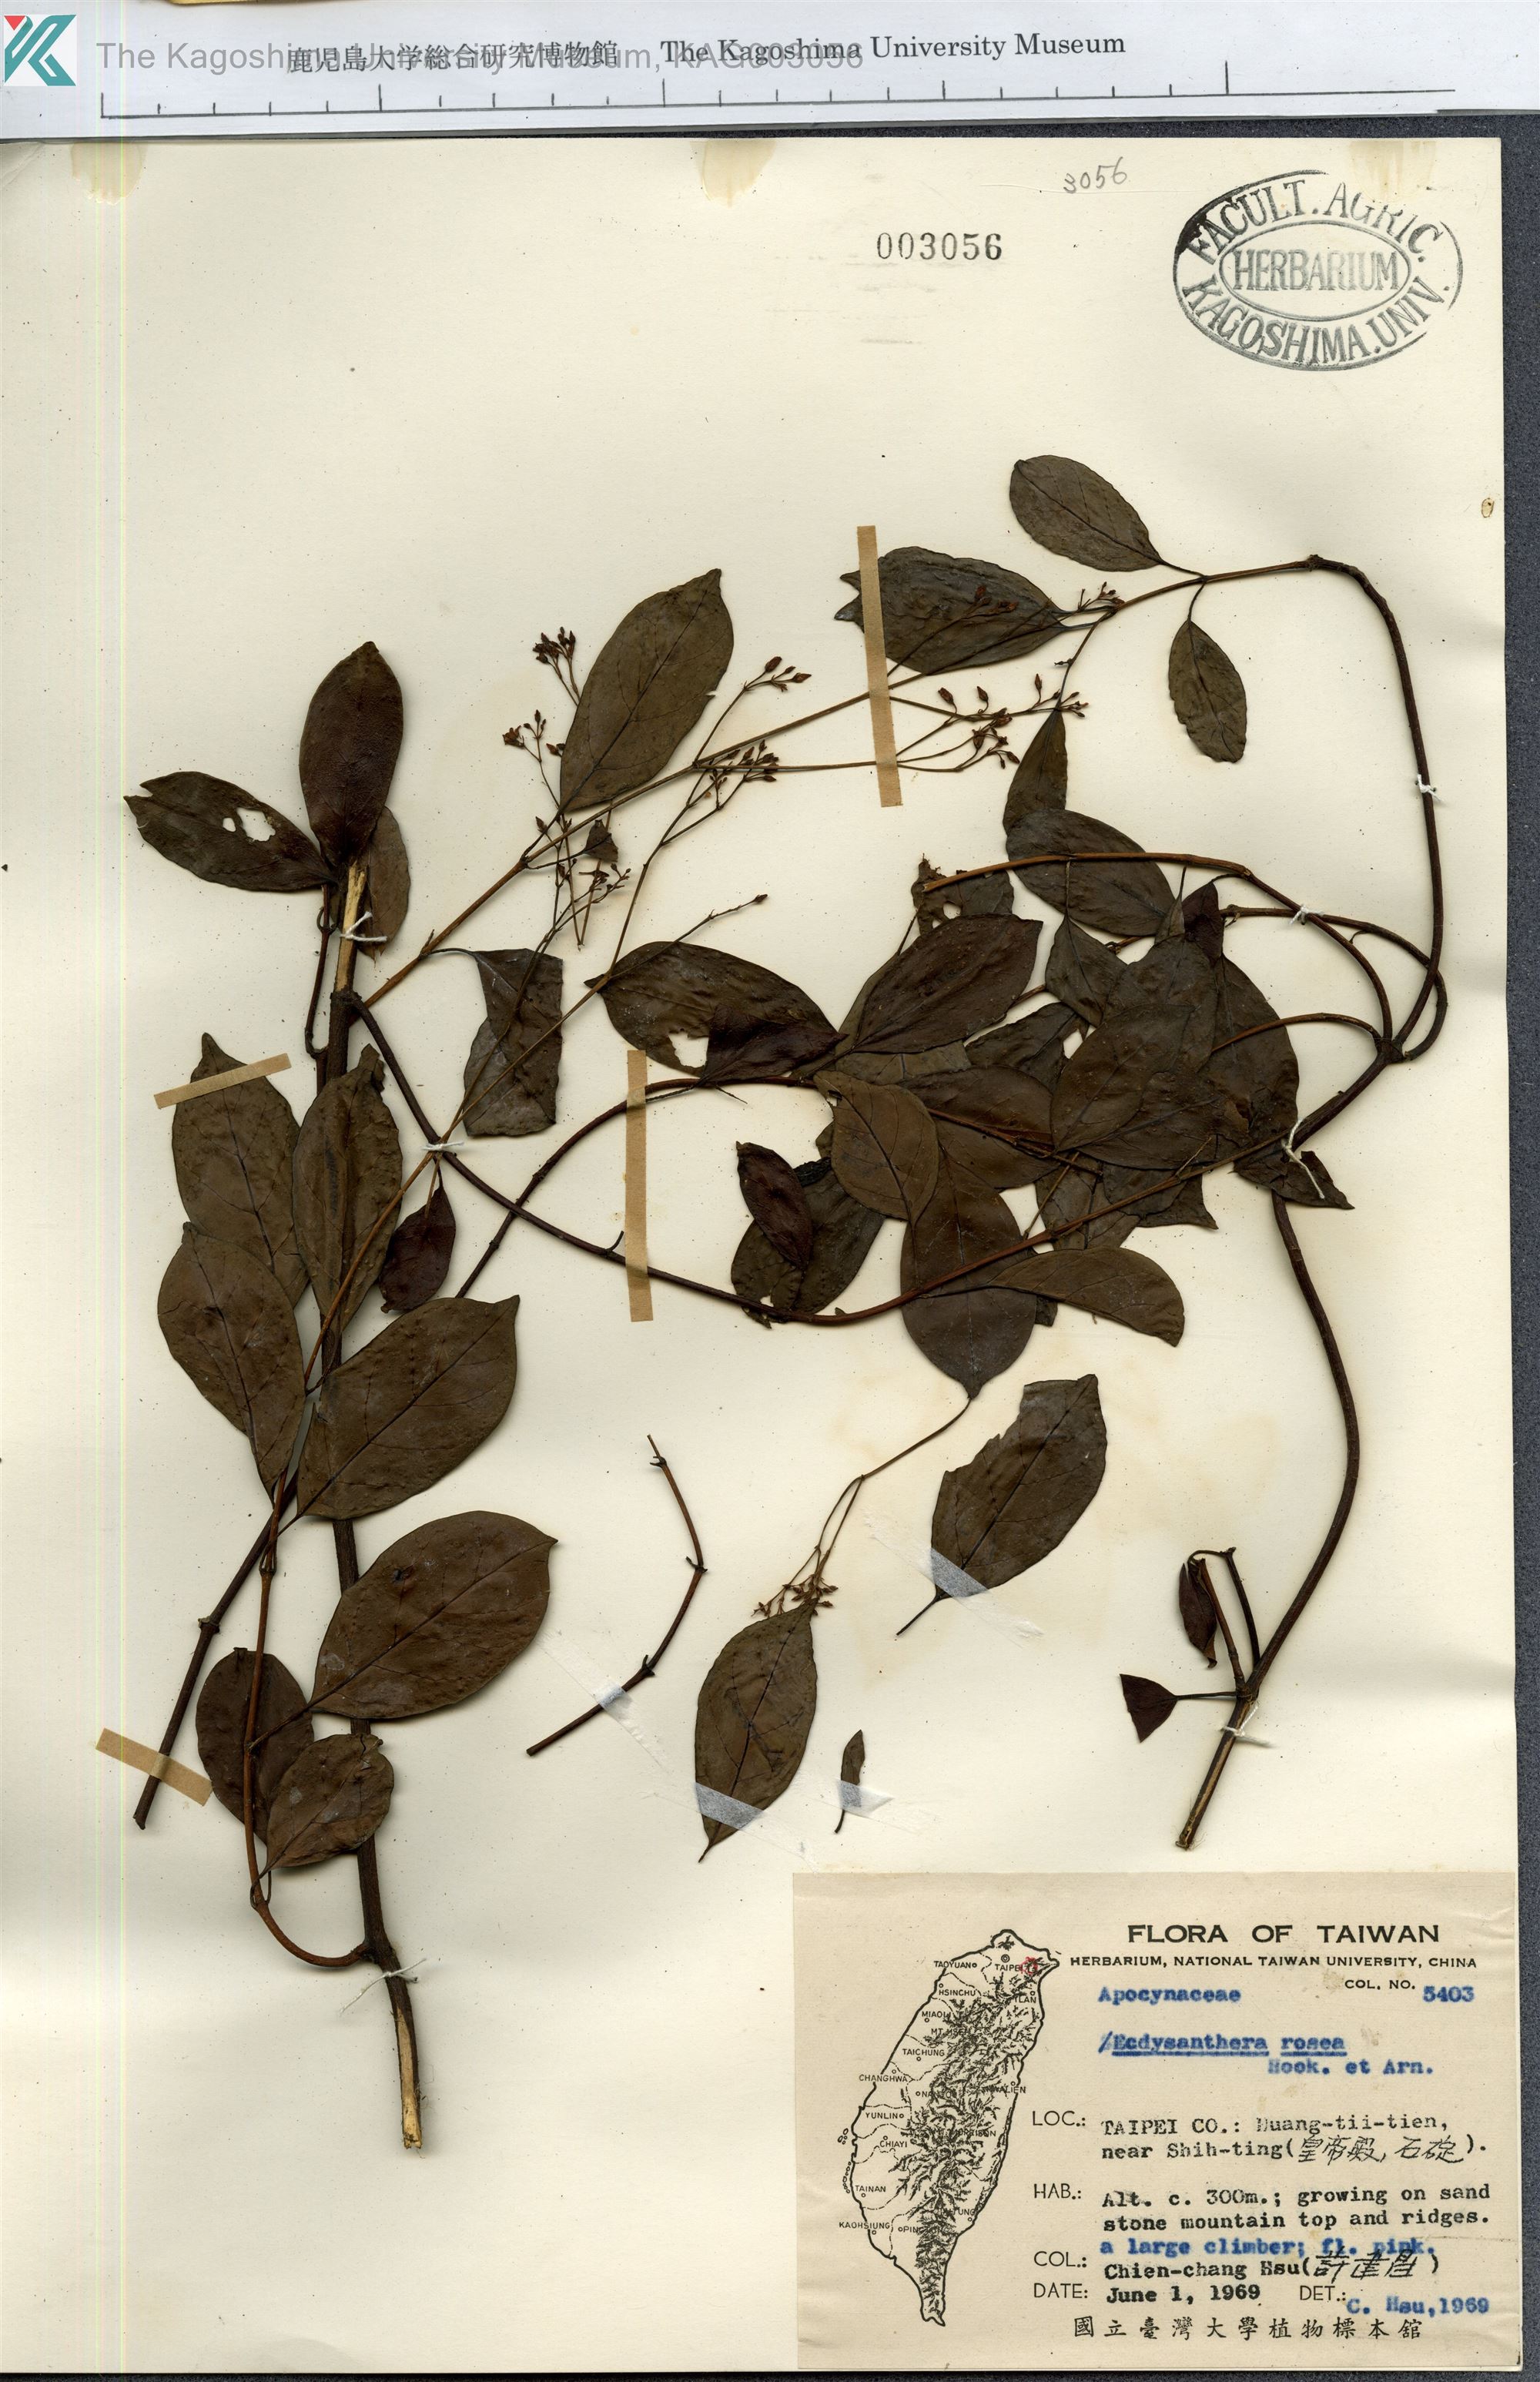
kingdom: Plantae
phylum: Tracheophyta
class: Magnoliopsida
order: Gentianales
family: Apocynaceae
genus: Urceola
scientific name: Urceola rosea
